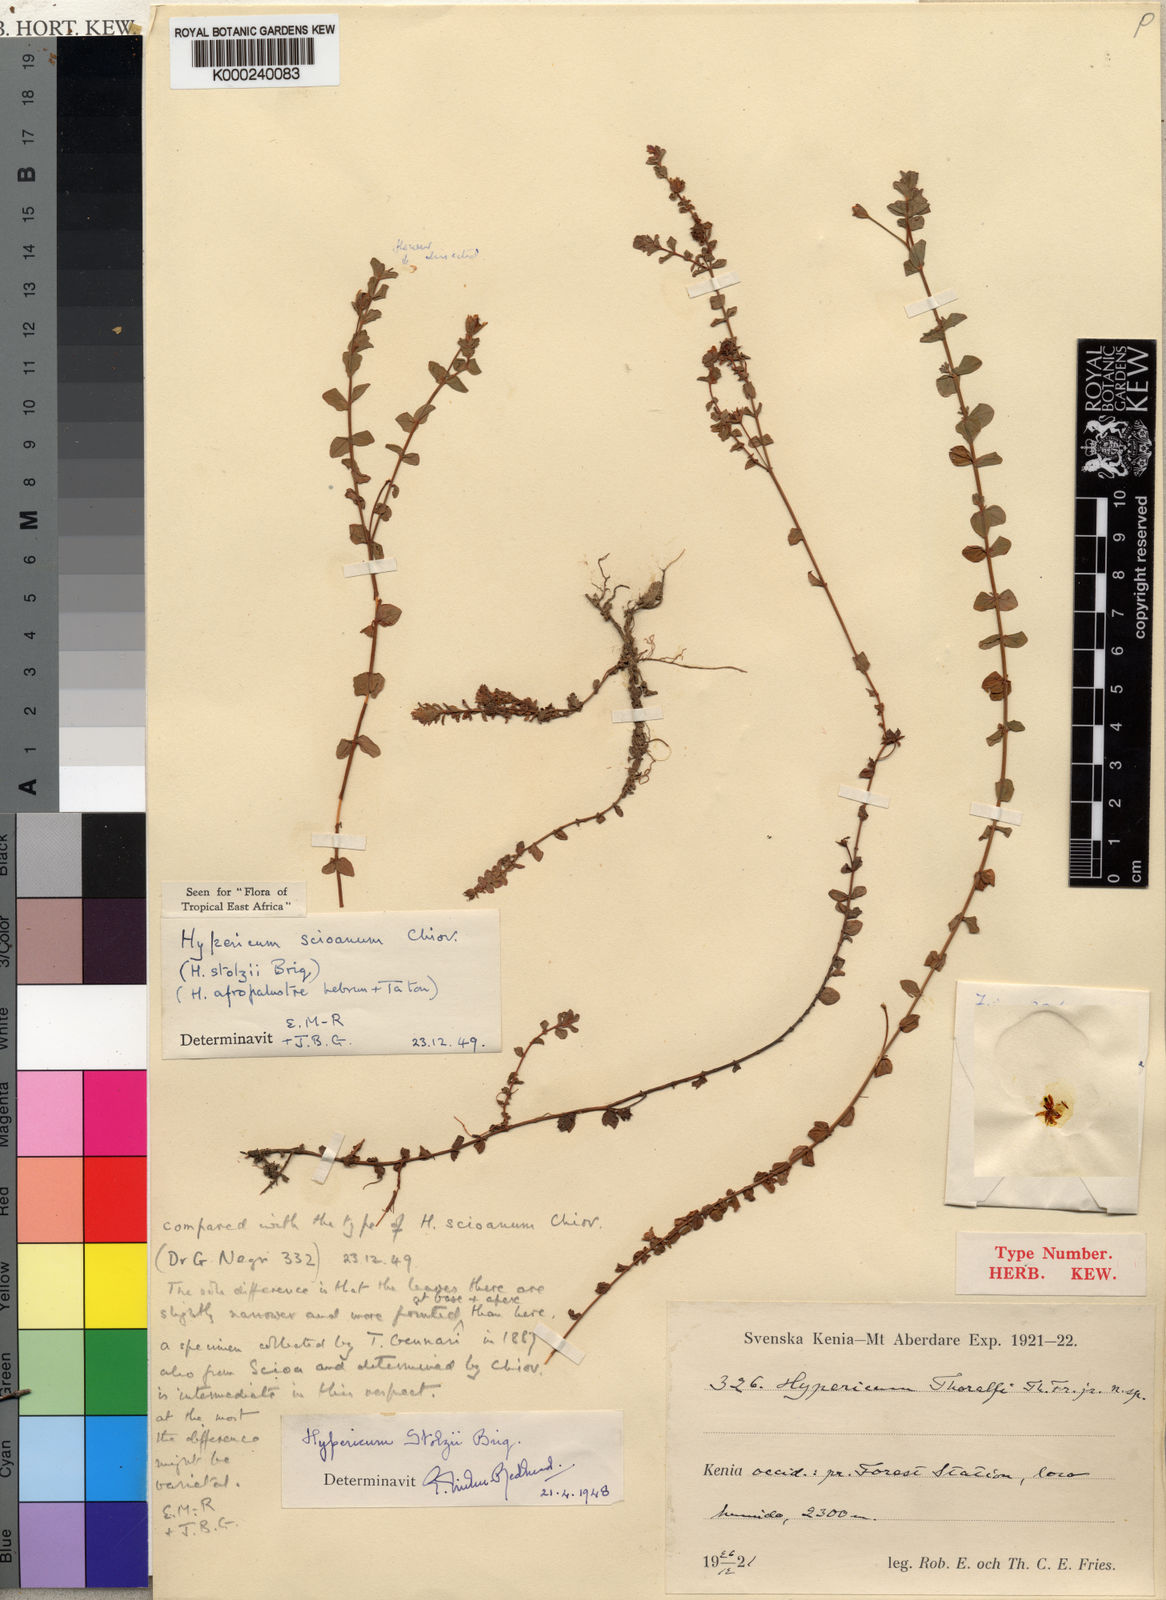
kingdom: Plantae
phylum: Tracheophyta
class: Magnoliopsida
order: Malpighiales
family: Hypericaceae
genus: Hypericum
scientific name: Hypericum scioanum
